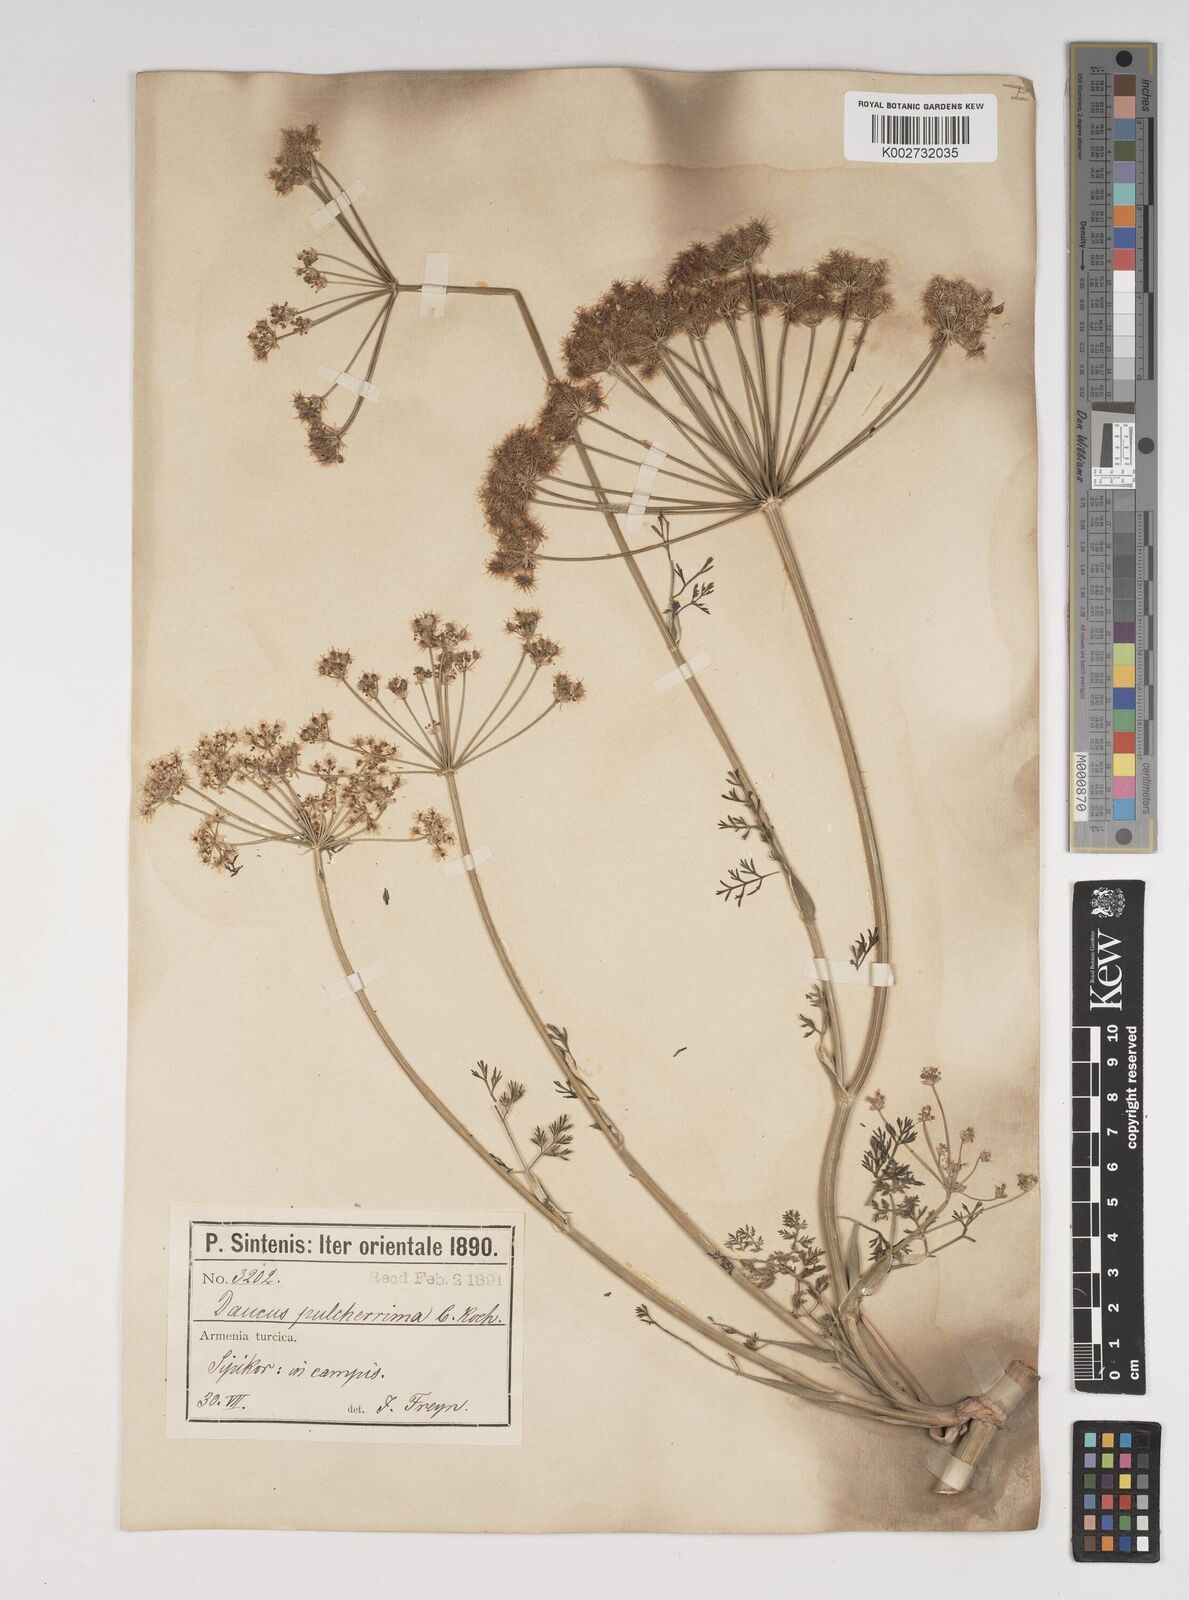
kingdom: Plantae
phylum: Tracheophyta
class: Magnoliopsida
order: Apiales
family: Apiaceae
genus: Astrodaucus
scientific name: Astrodaucus
